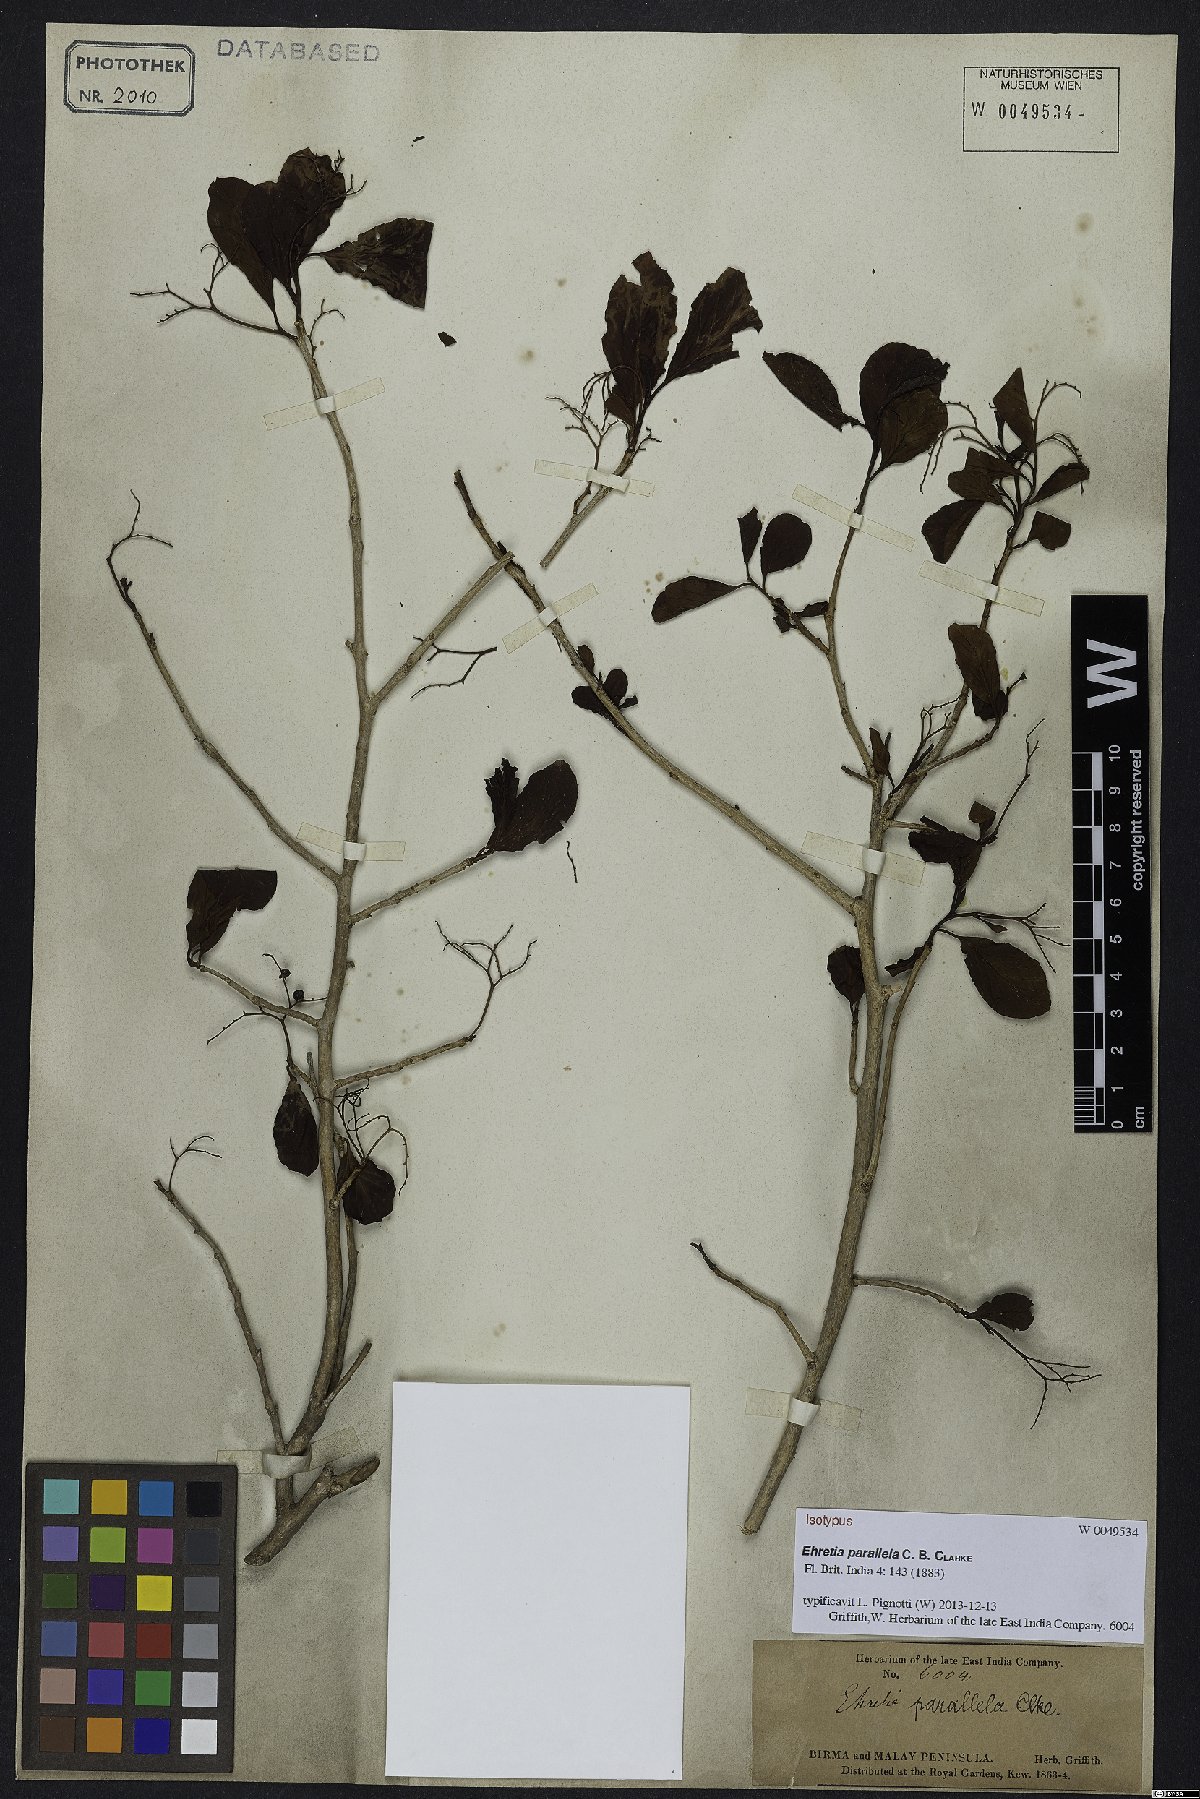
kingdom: Plantae
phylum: Tracheophyta
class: Magnoliopsida
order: Boraginales
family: Ehretiaceae
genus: Ehretia
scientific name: Ehretia parallela
